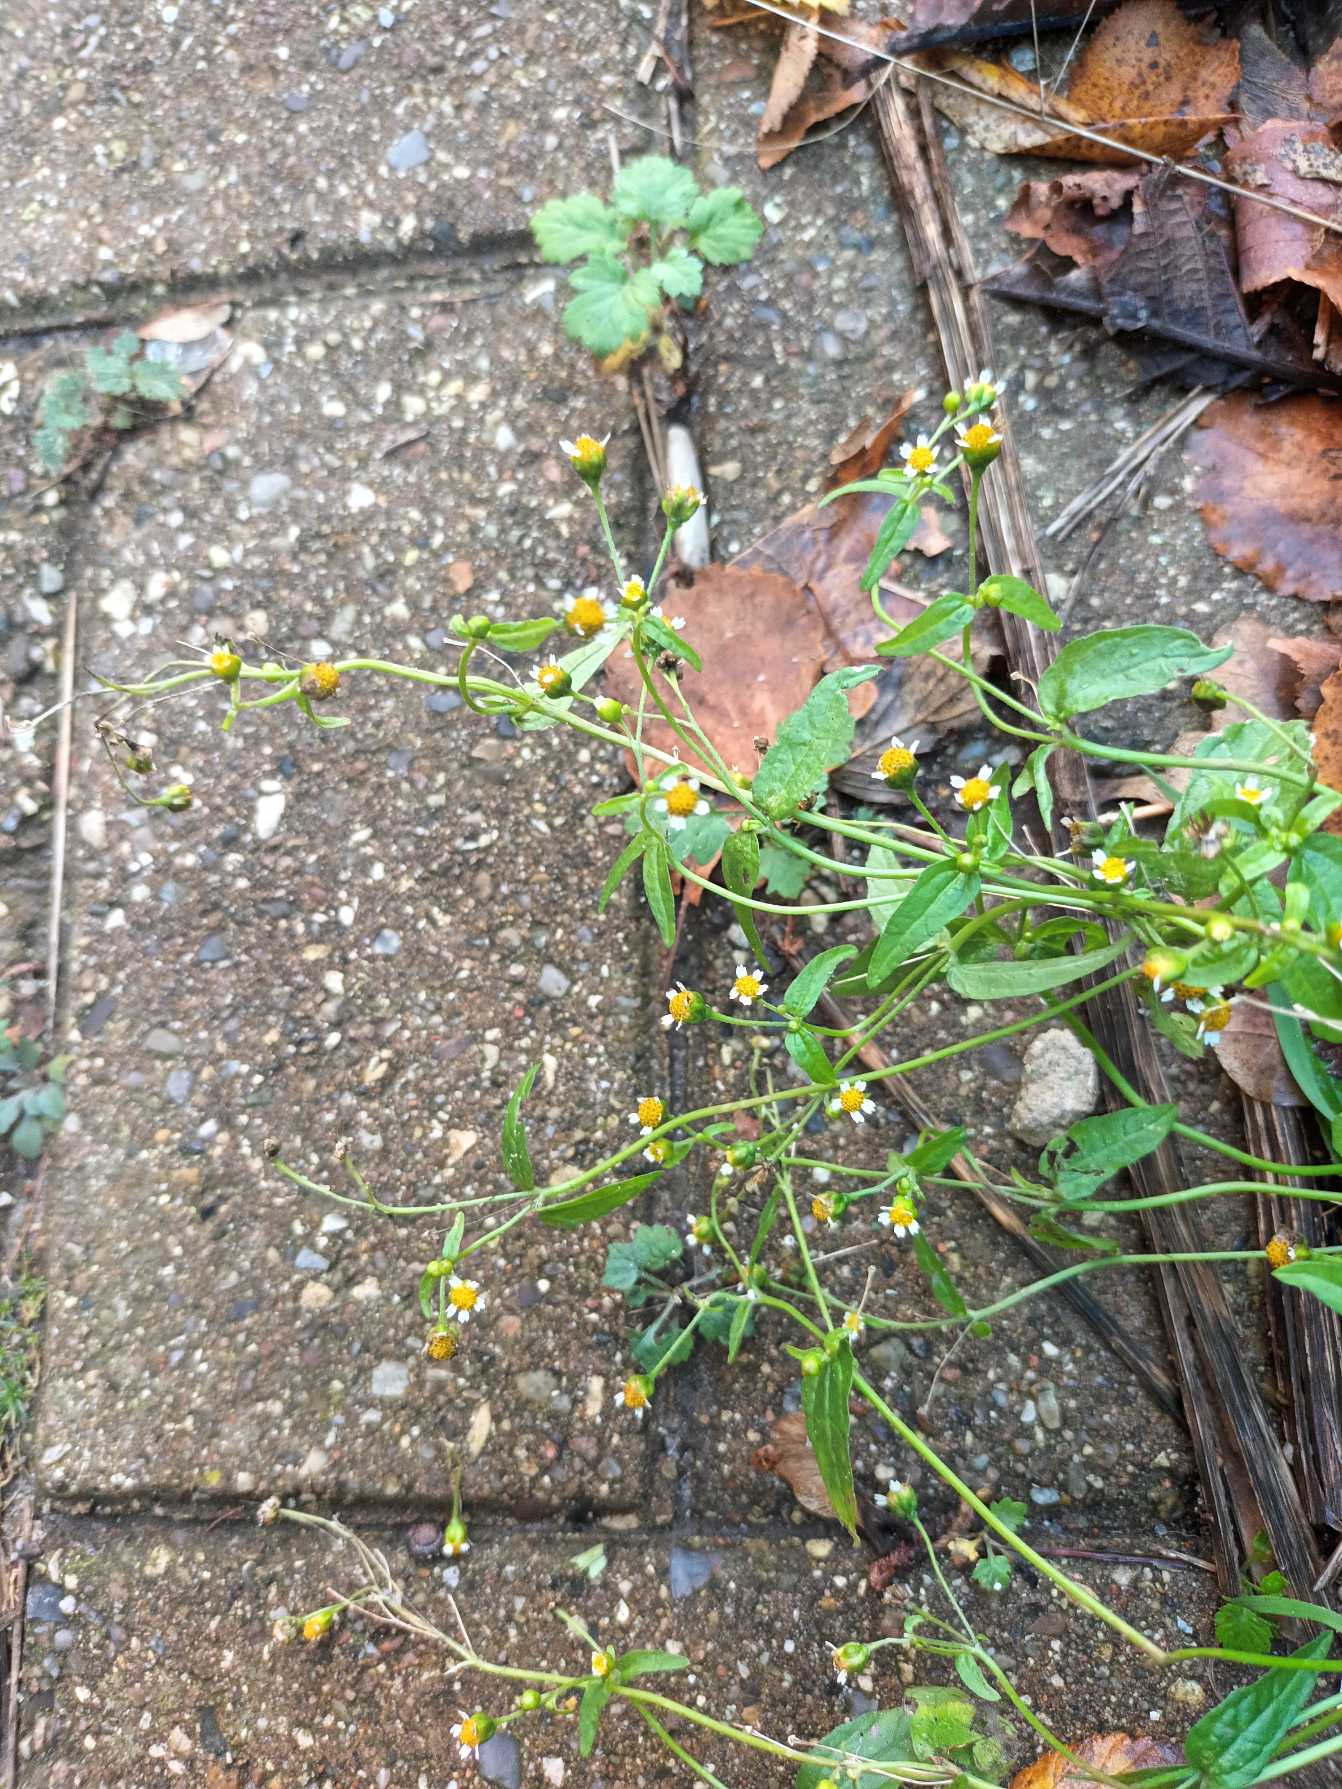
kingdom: Plantae
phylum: Tracheophyta
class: Magnoliopsida
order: Asterales
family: Asteraceae
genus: Galinsoga
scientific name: Galinsoga parviflora
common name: Håret kortstråle
